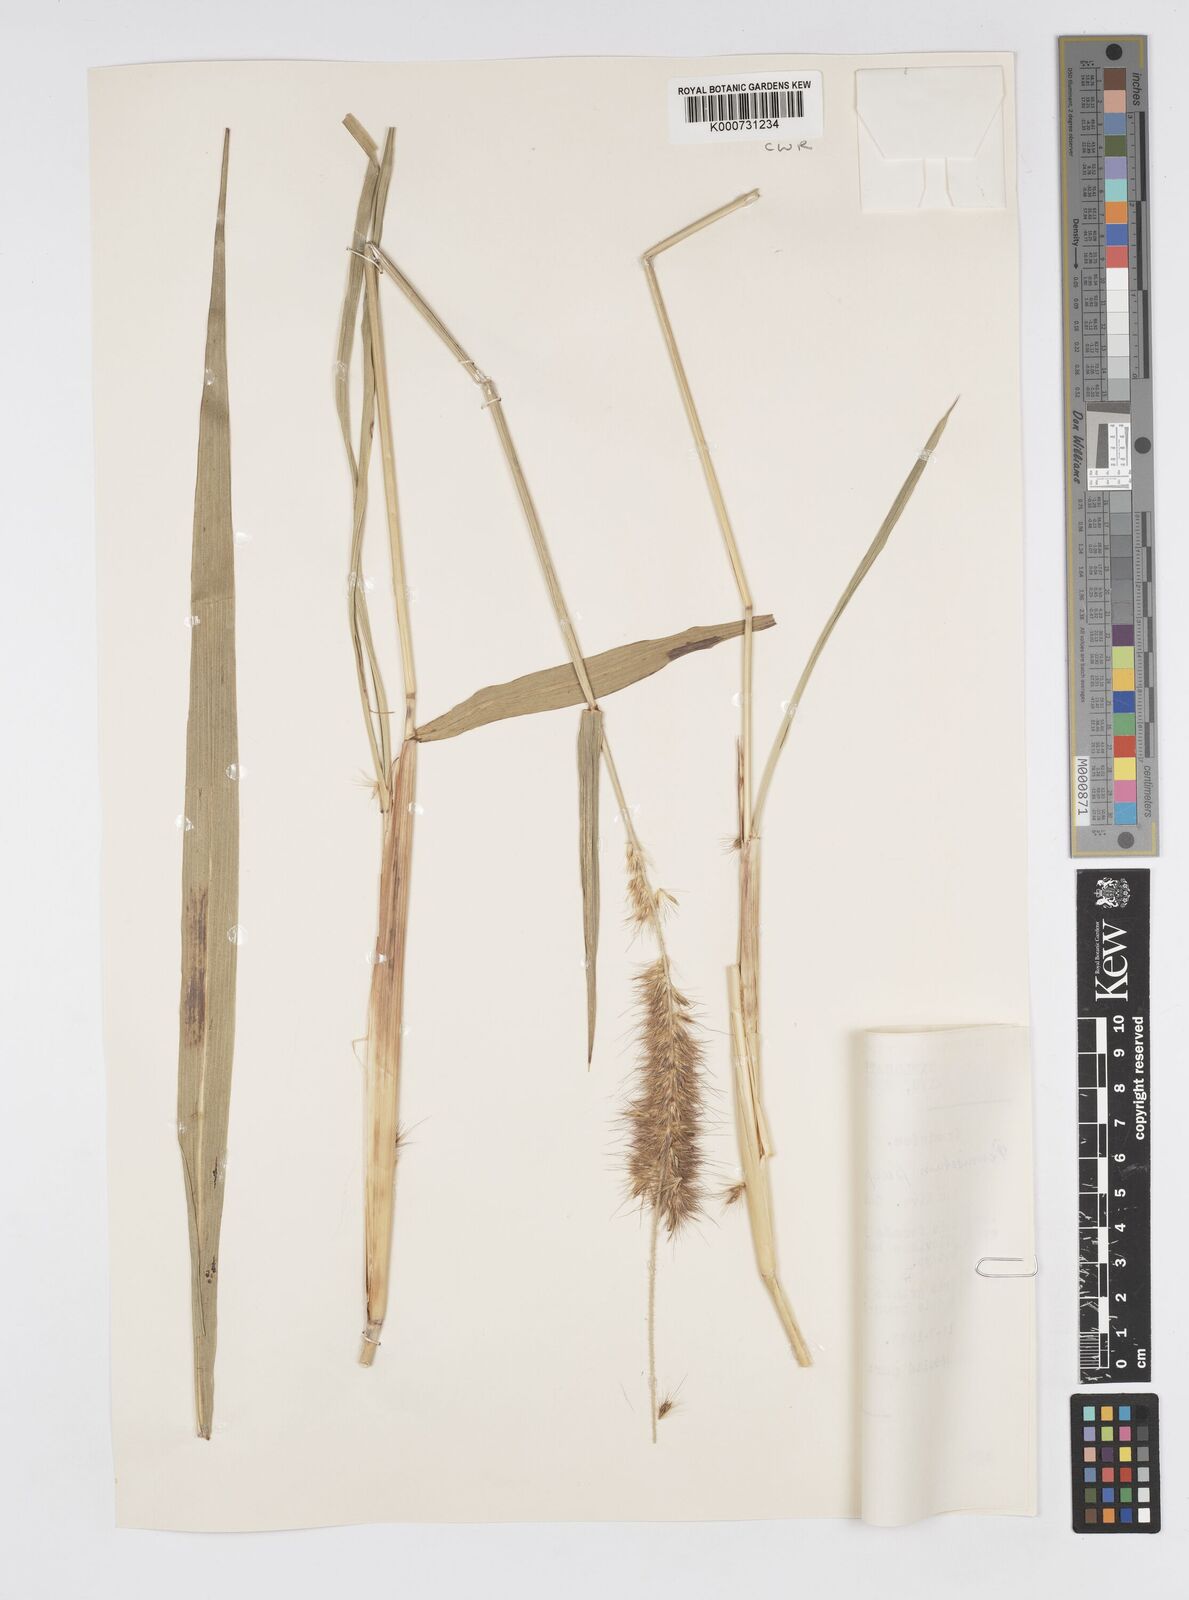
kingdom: Plantae
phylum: Tracheophyta
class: Liliopsida
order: Poales
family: Poaceae
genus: Cenchrus
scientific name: Cenchrus purpureus
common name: Elephant grass
